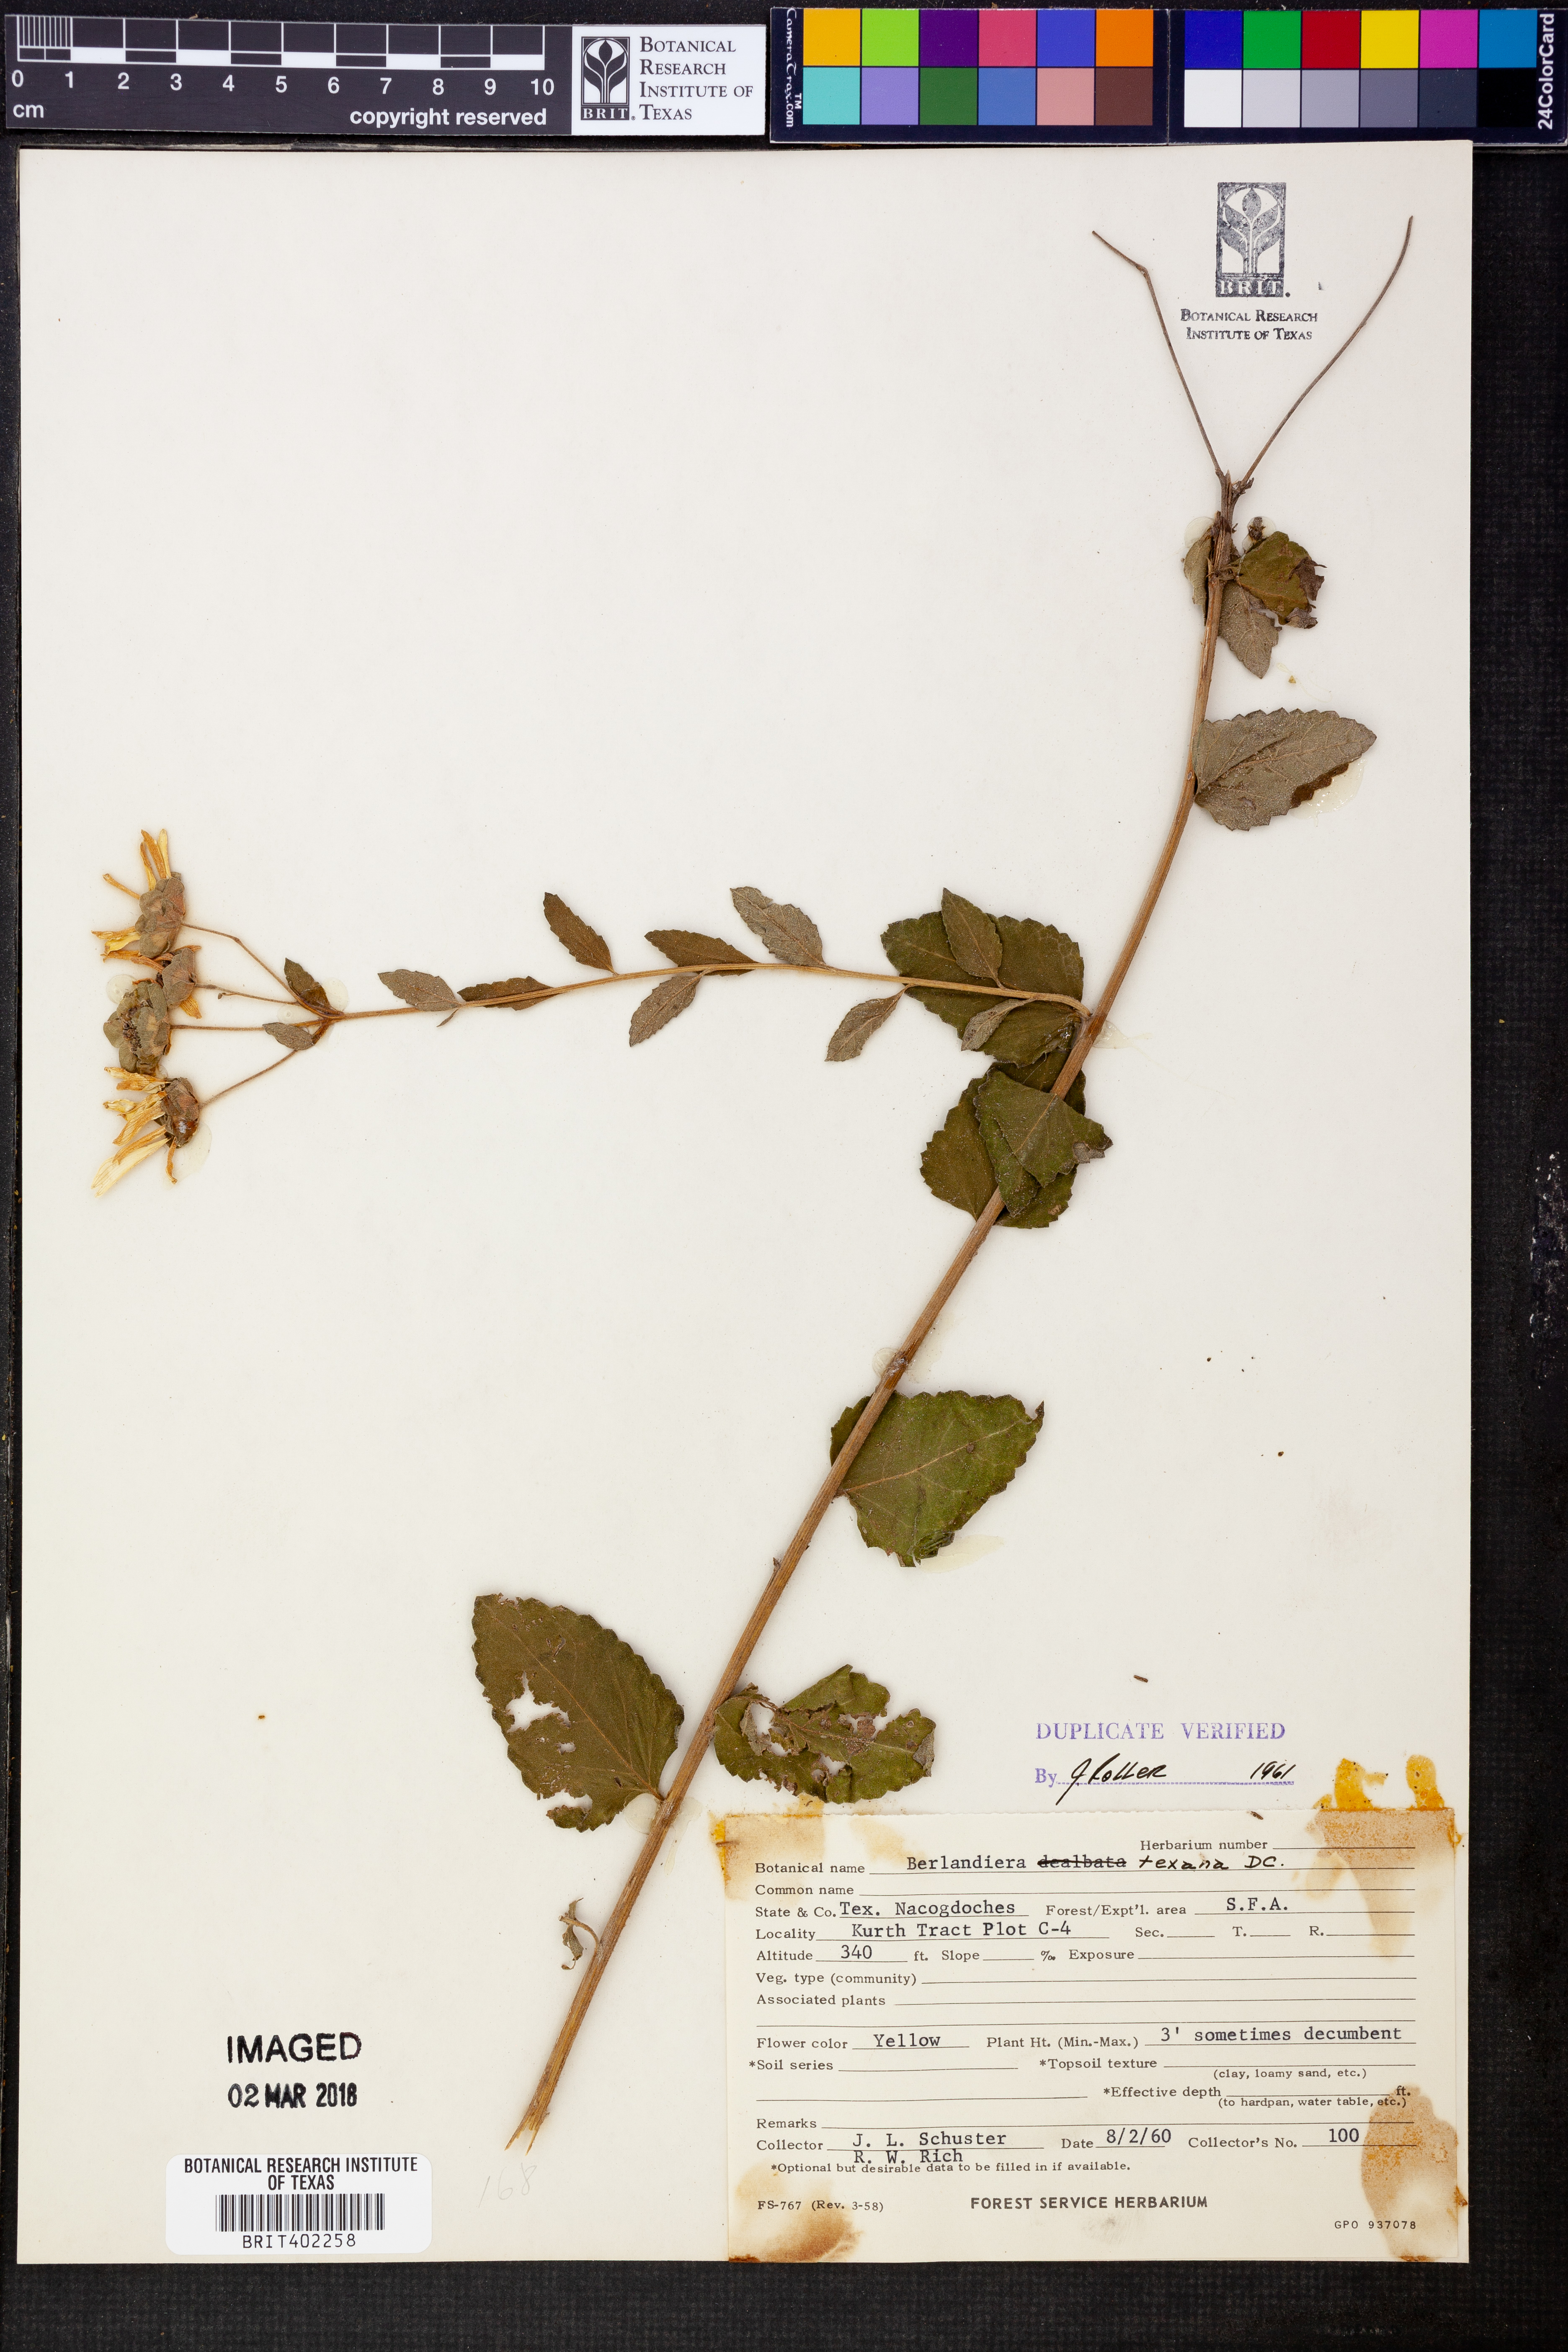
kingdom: Plantae
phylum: Tracheophyta
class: Magnoliopsida
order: Asterales
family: Asteraceae
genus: Berlandiera
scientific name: Berlandiera texana
